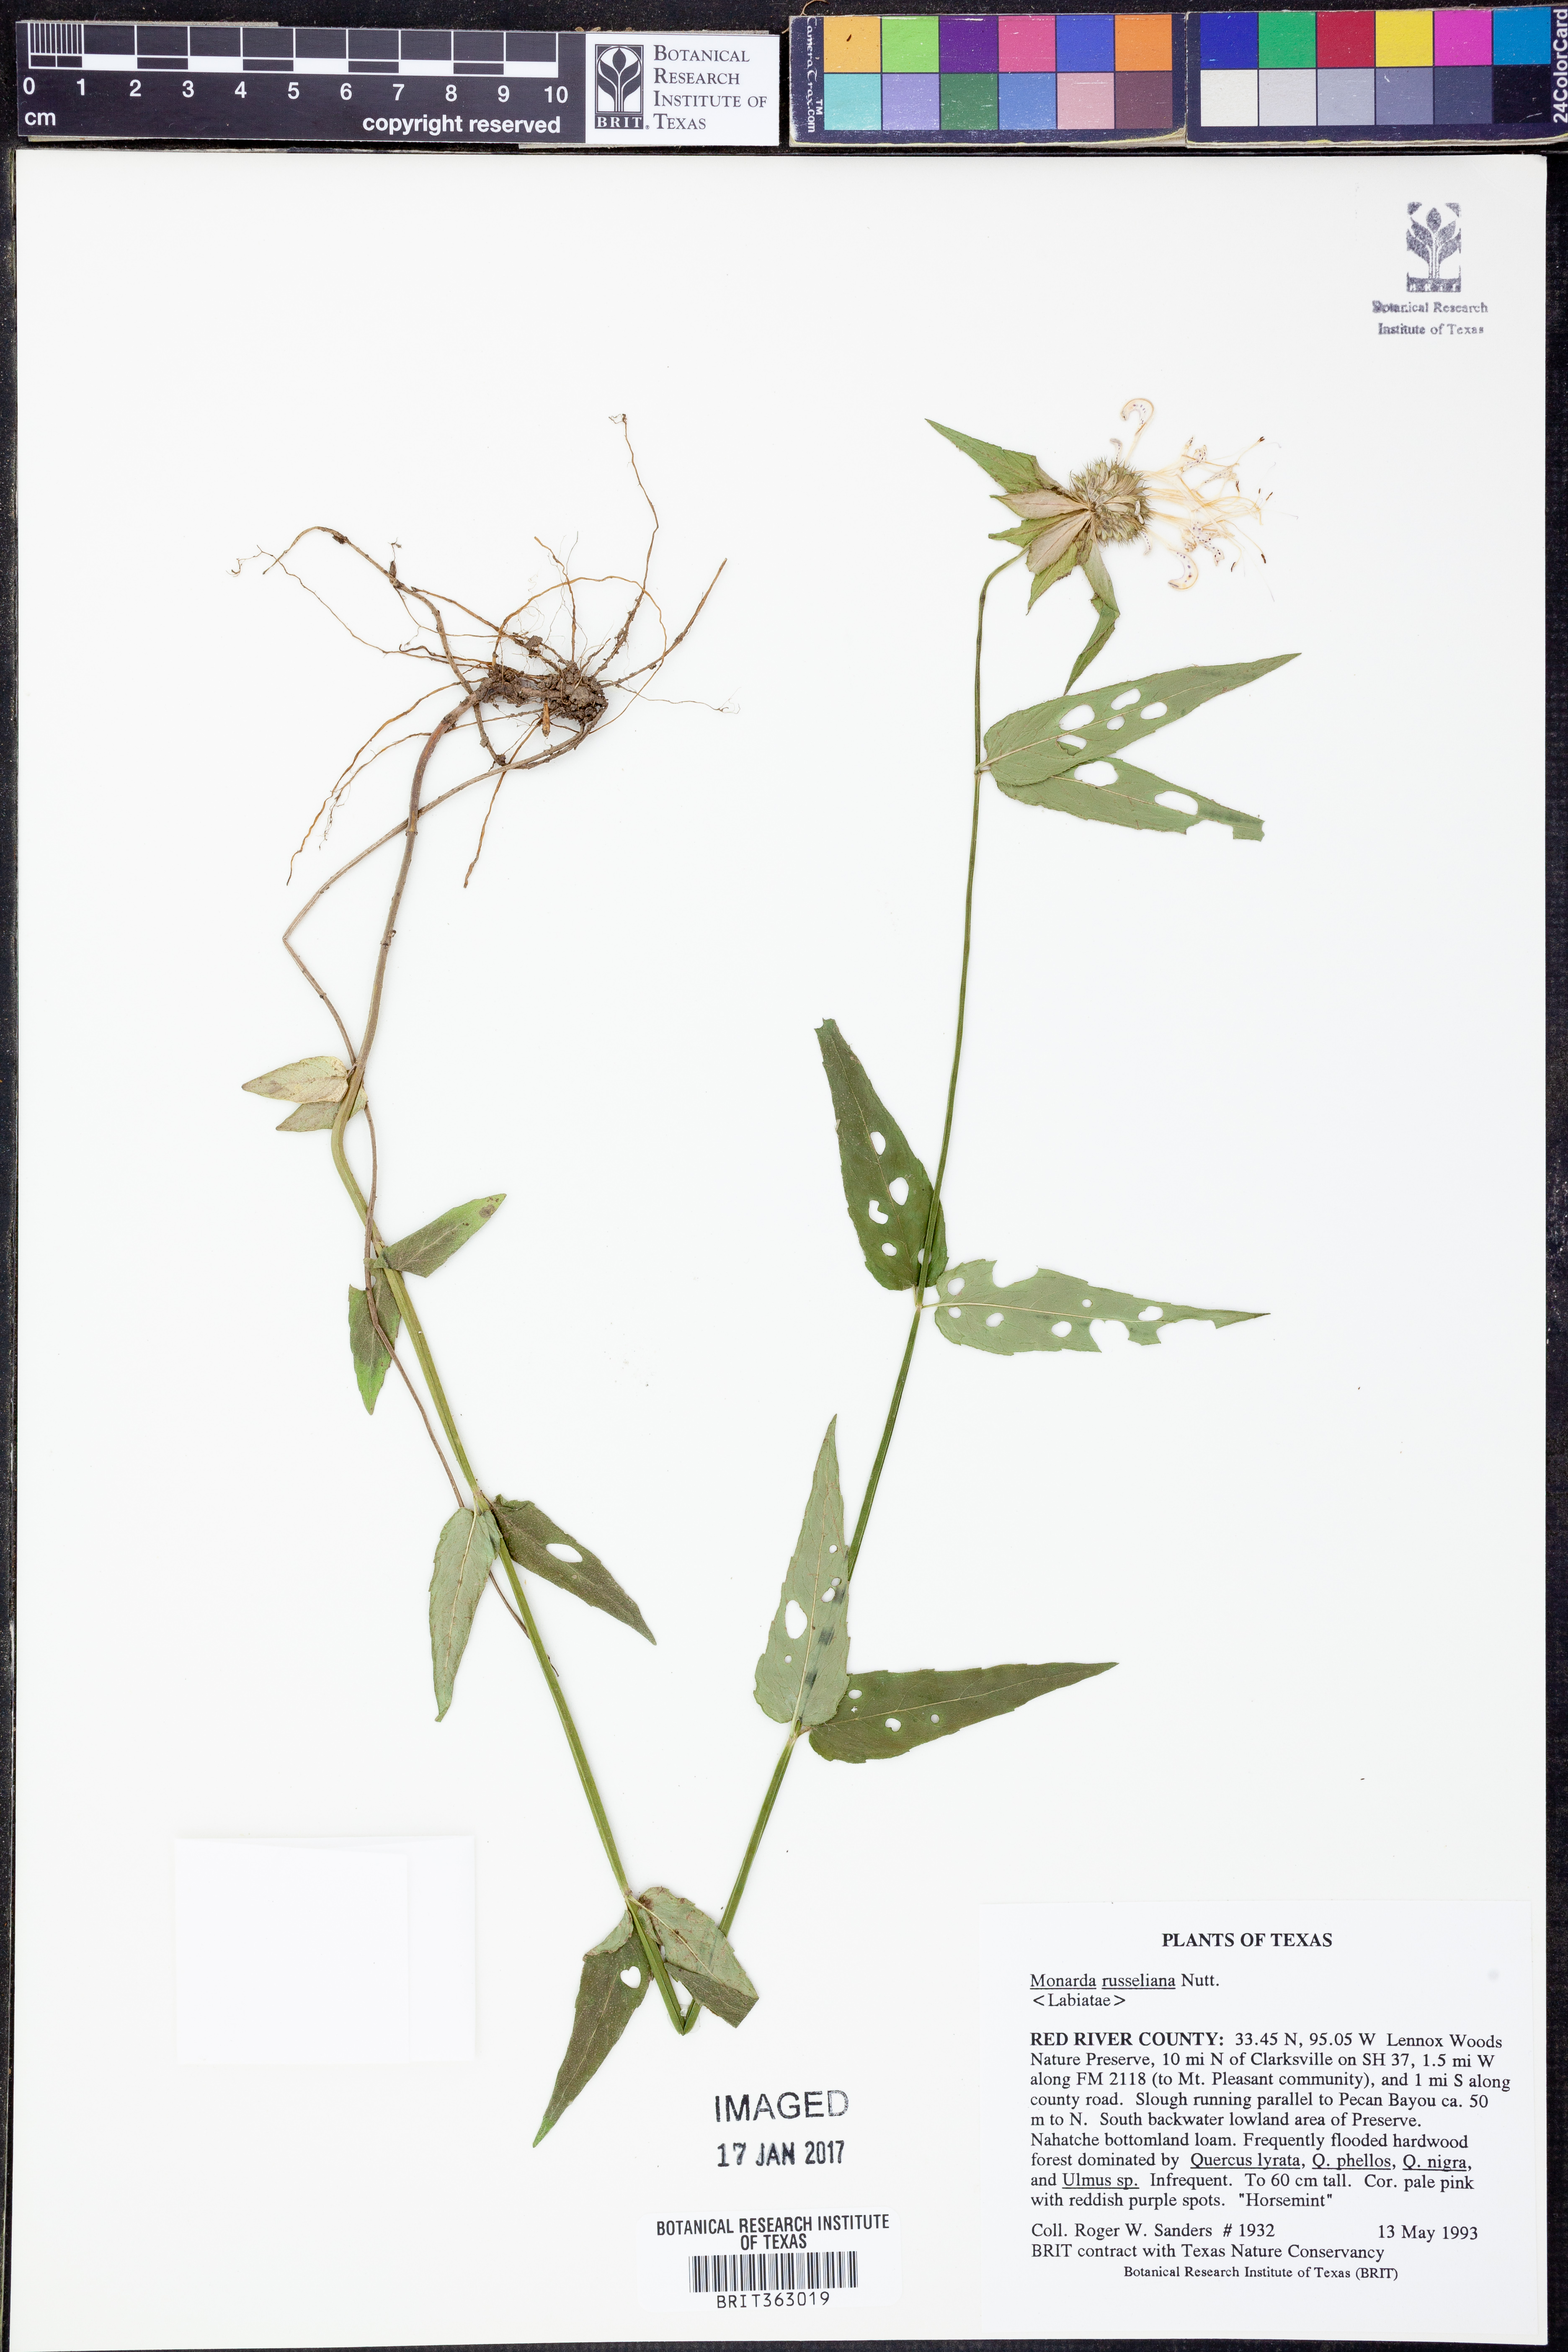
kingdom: Plantae
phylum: Tracheophyta
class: Magnoliopsida
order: Lamiales
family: Lamiaceae
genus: Monarda
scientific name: Monarda russeliana
